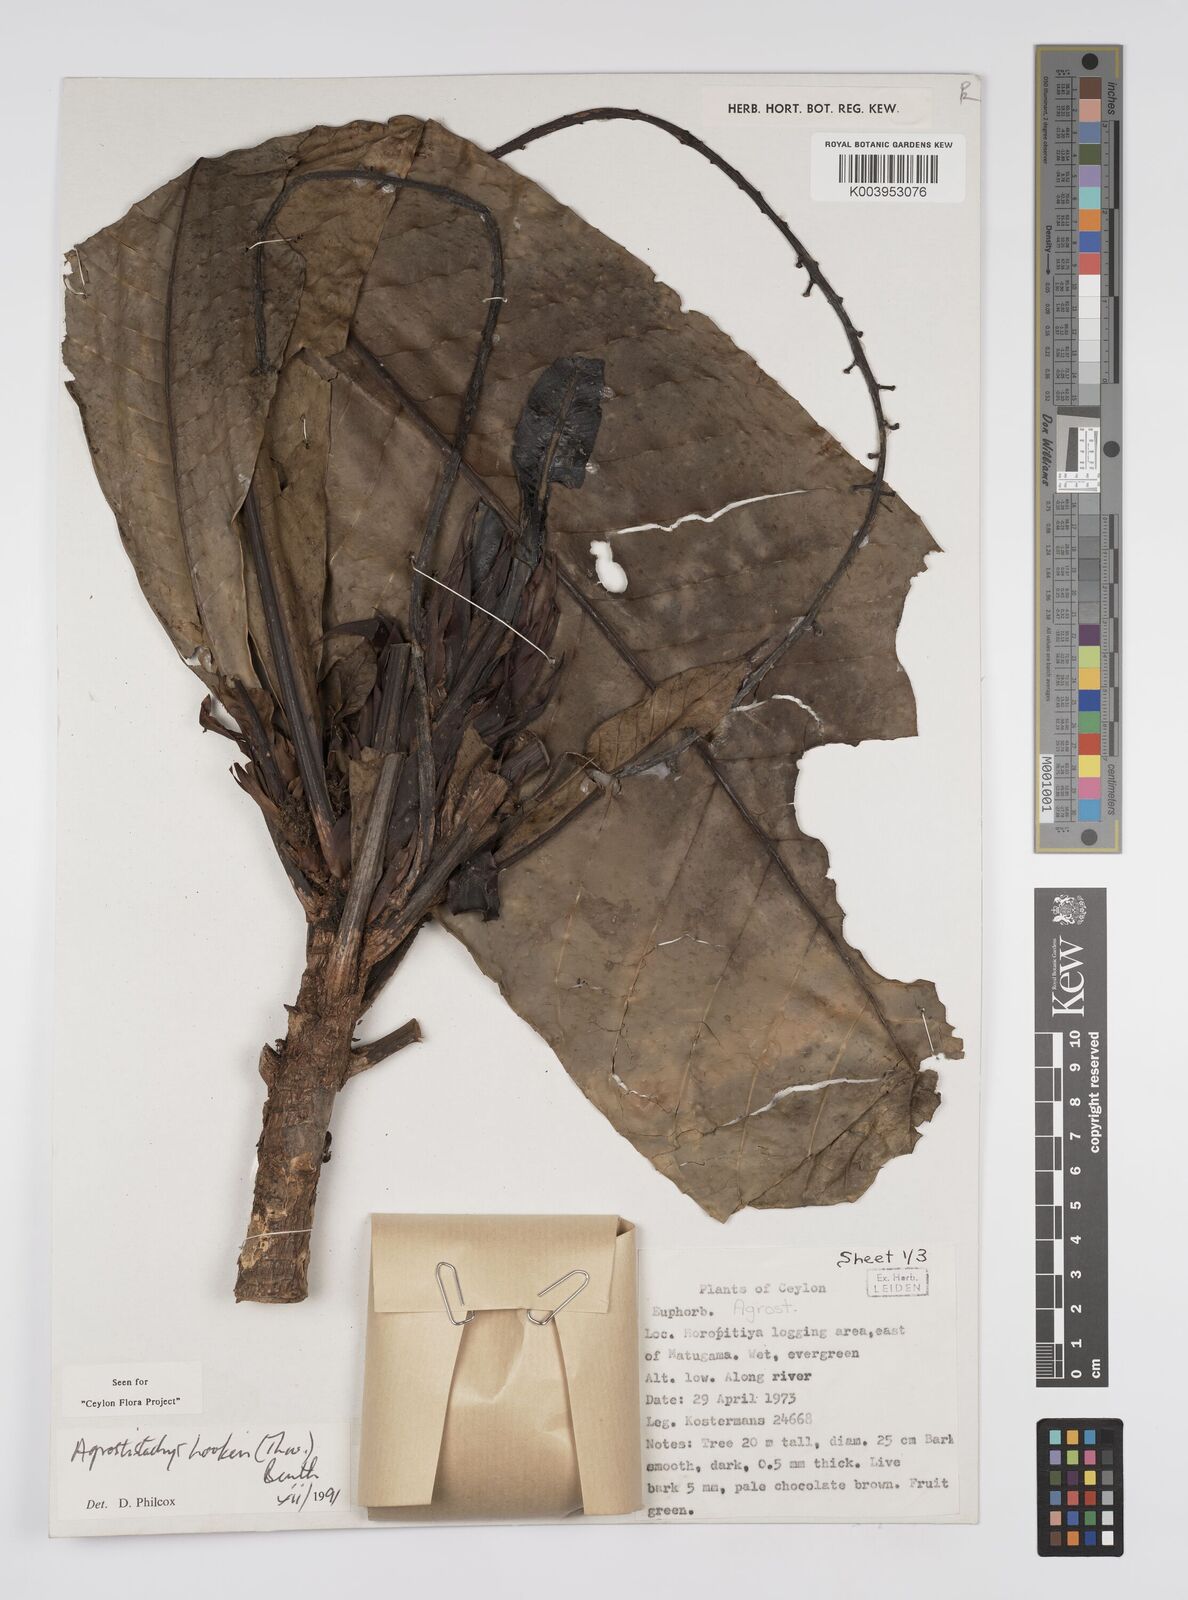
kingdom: Plantae
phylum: Tracheophyta
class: Magnoliopsida
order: Malpighiales
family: Euphorbiaceae
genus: Agrostistachys
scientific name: Agrostistachys hookeri
